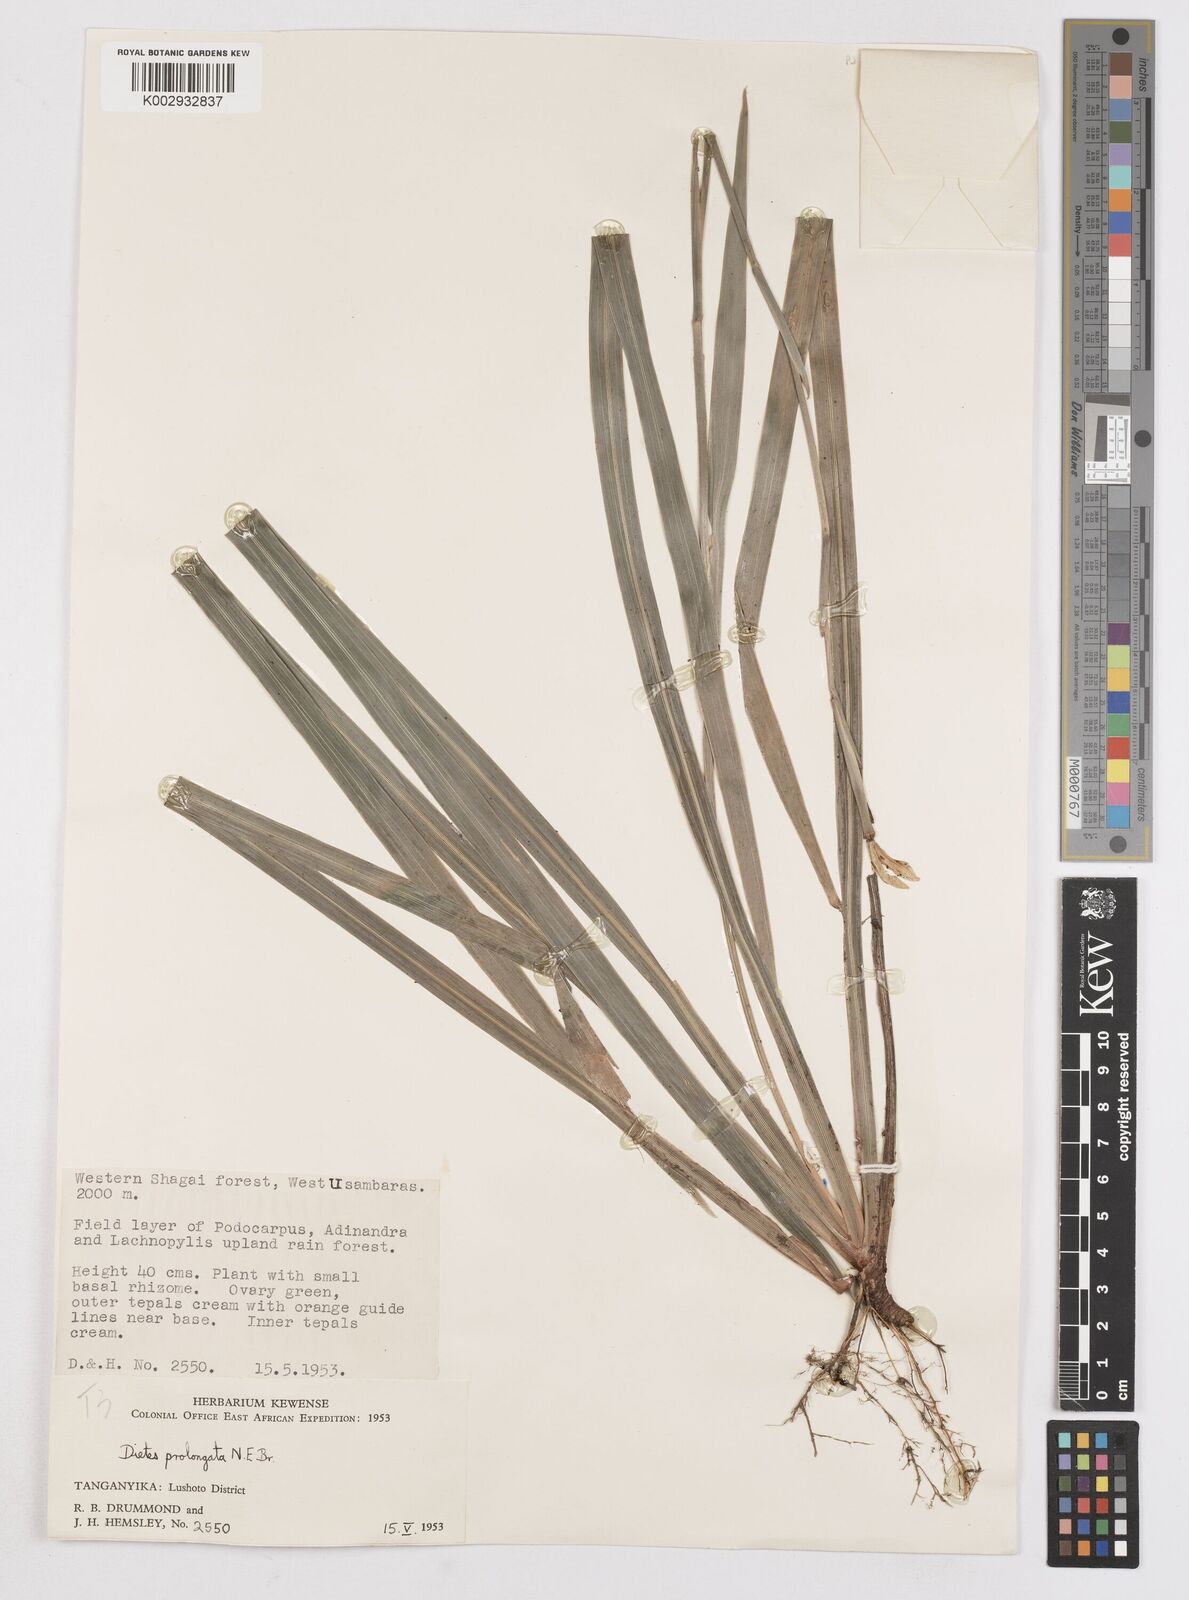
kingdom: Plantae
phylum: Tracheophyta
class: Liliopsida
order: Asparagales
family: Iridaceae
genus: Dietes
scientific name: Dietes iridioides
